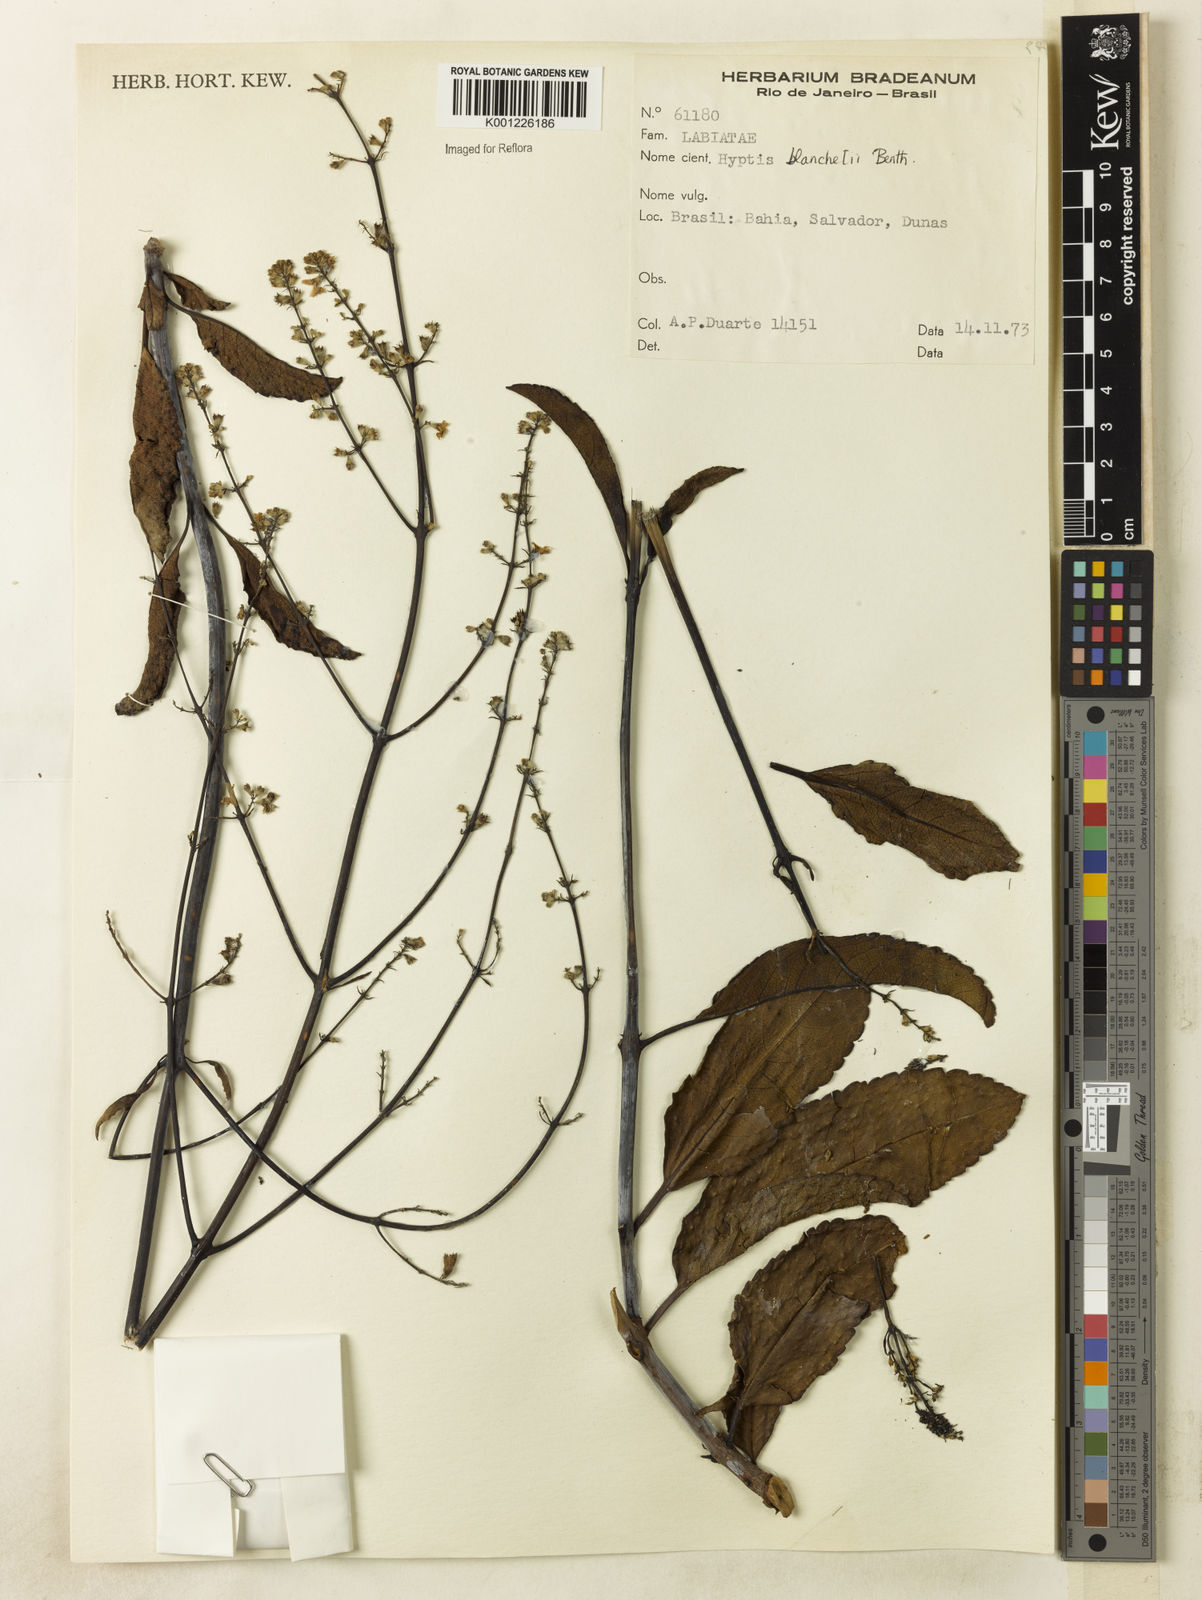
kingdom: Plantae
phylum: Tracheophyta
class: Magnoliopsida
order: Lamiales
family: Lamiaceae
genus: Eriope
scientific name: Eriope blanchetii
